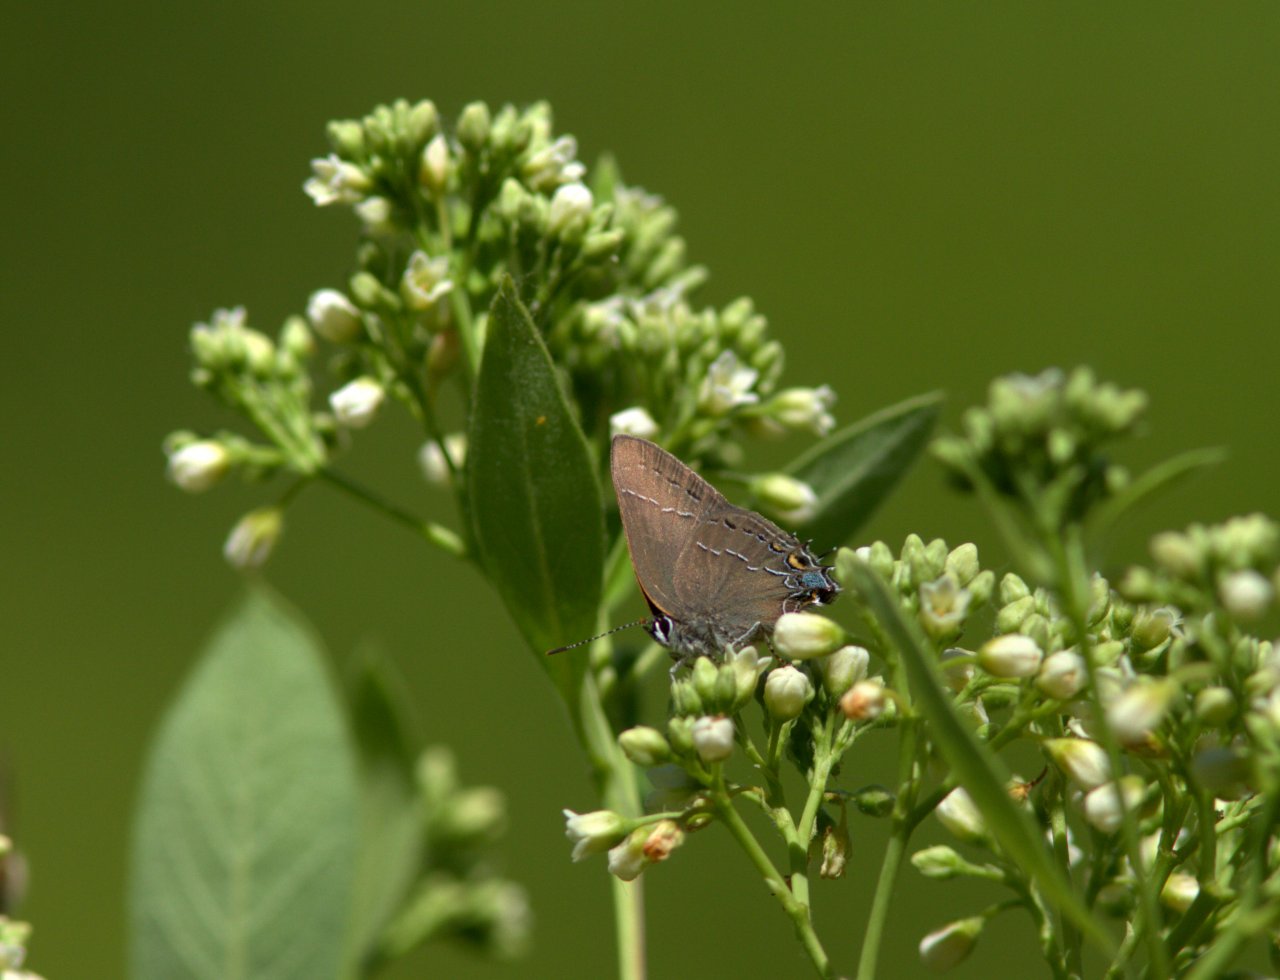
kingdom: Animalia
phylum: Arthropoda
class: Insecta
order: Lepidoptera
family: Lycaenidae
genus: Fixsenia
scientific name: Fixsenia favonius
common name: Oak Hairstreak
